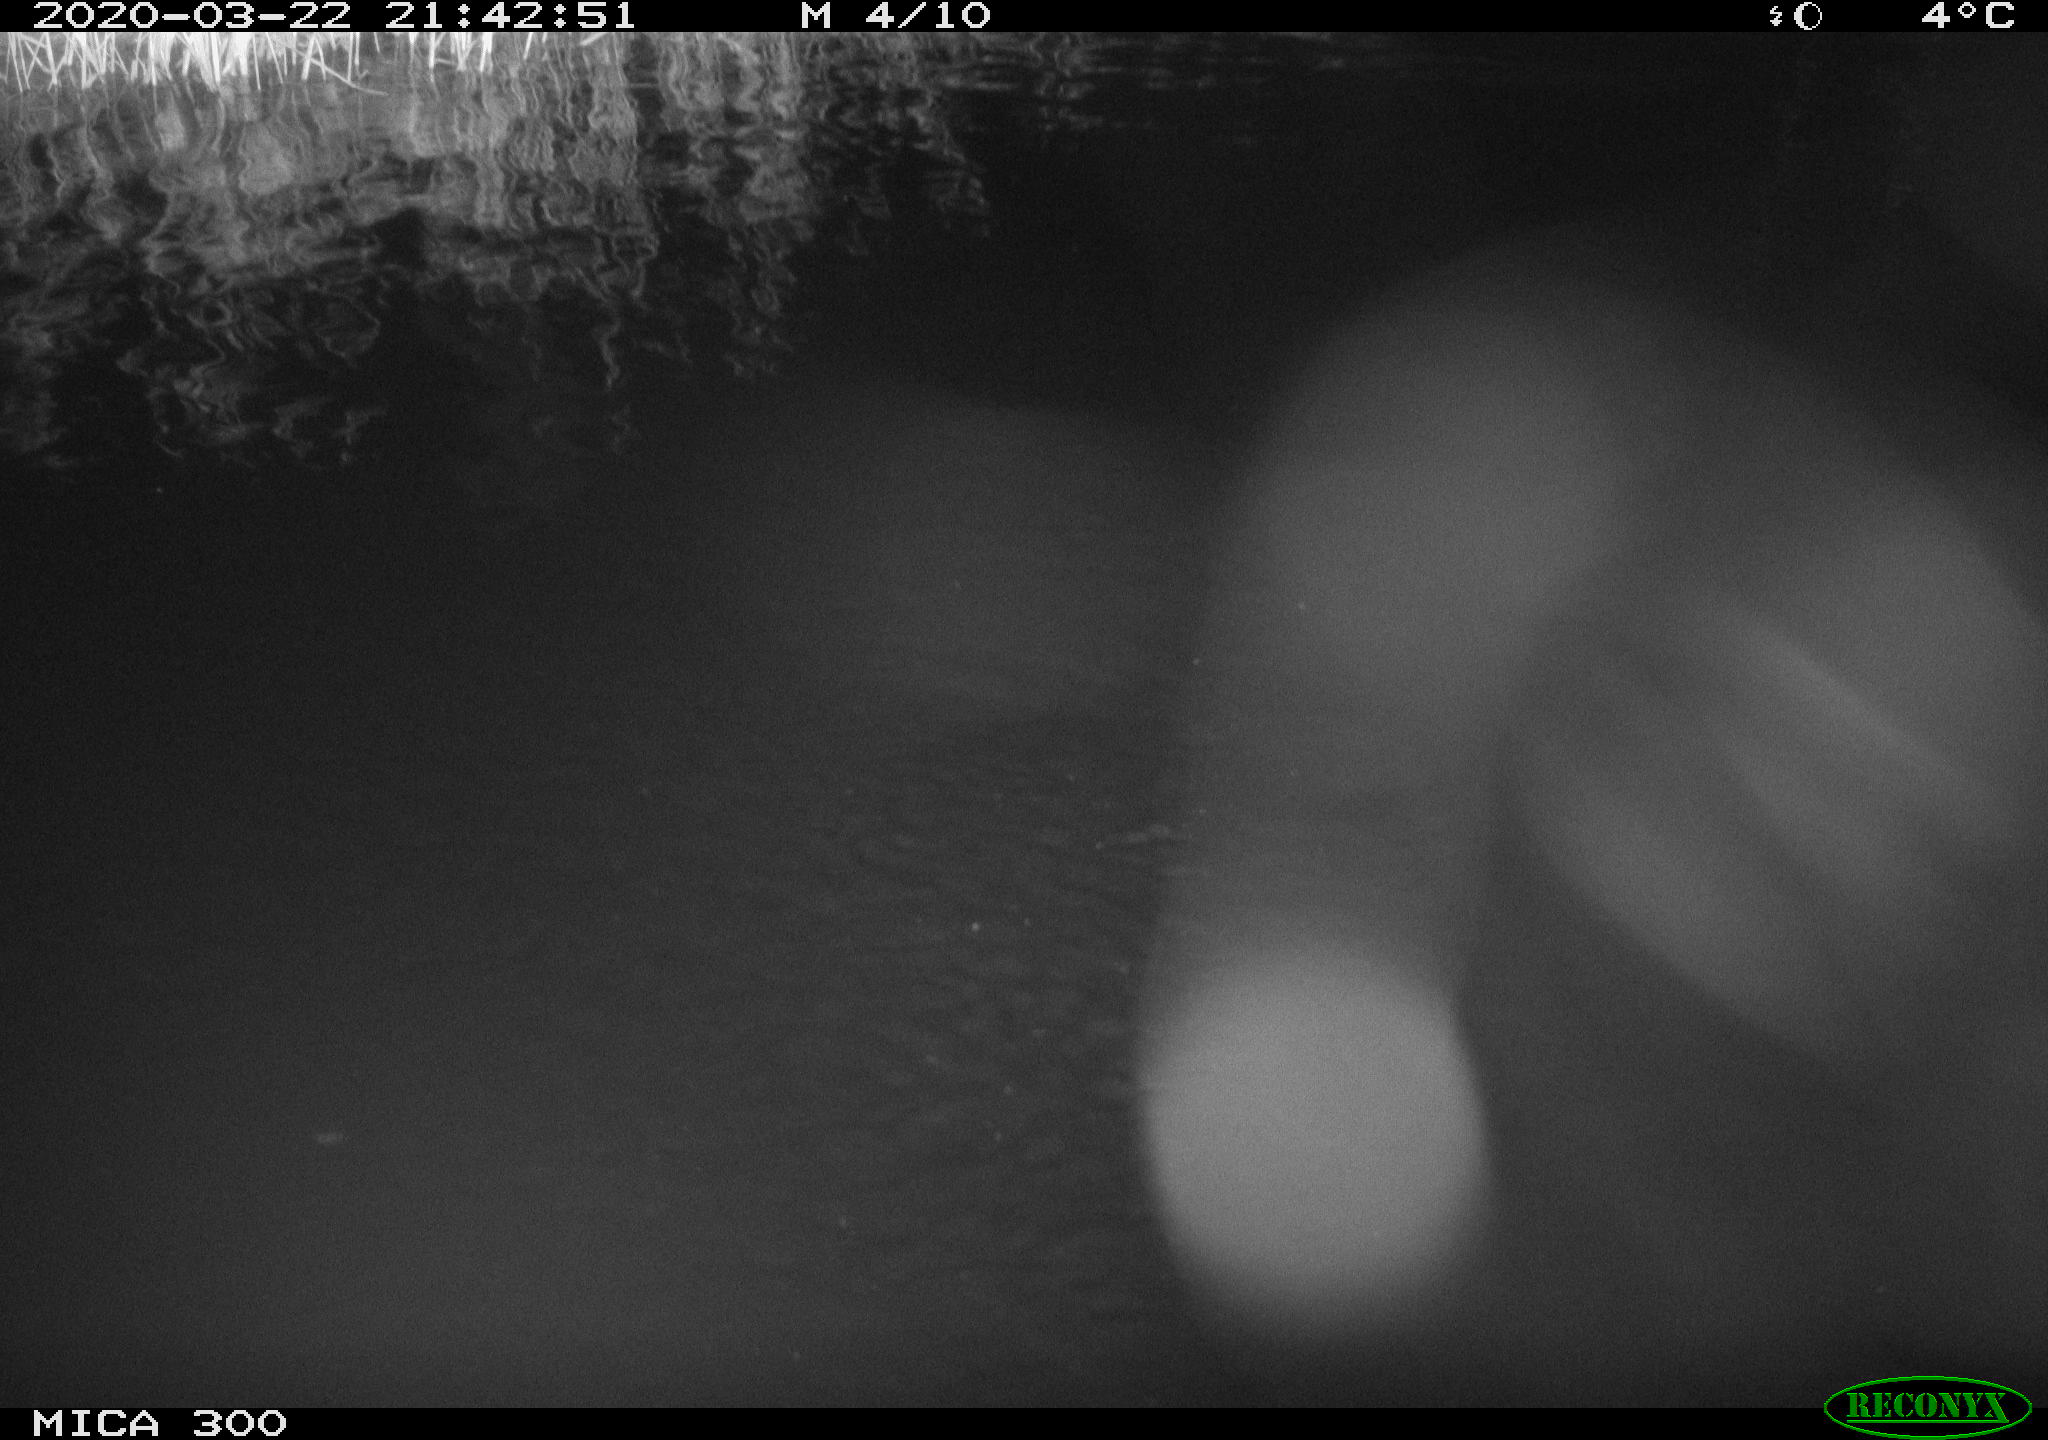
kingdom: Animalia
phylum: Chordata
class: Mammalia
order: Rodentia
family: Castoridae
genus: Castor
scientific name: Castor fiber
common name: Eurasian beaver
